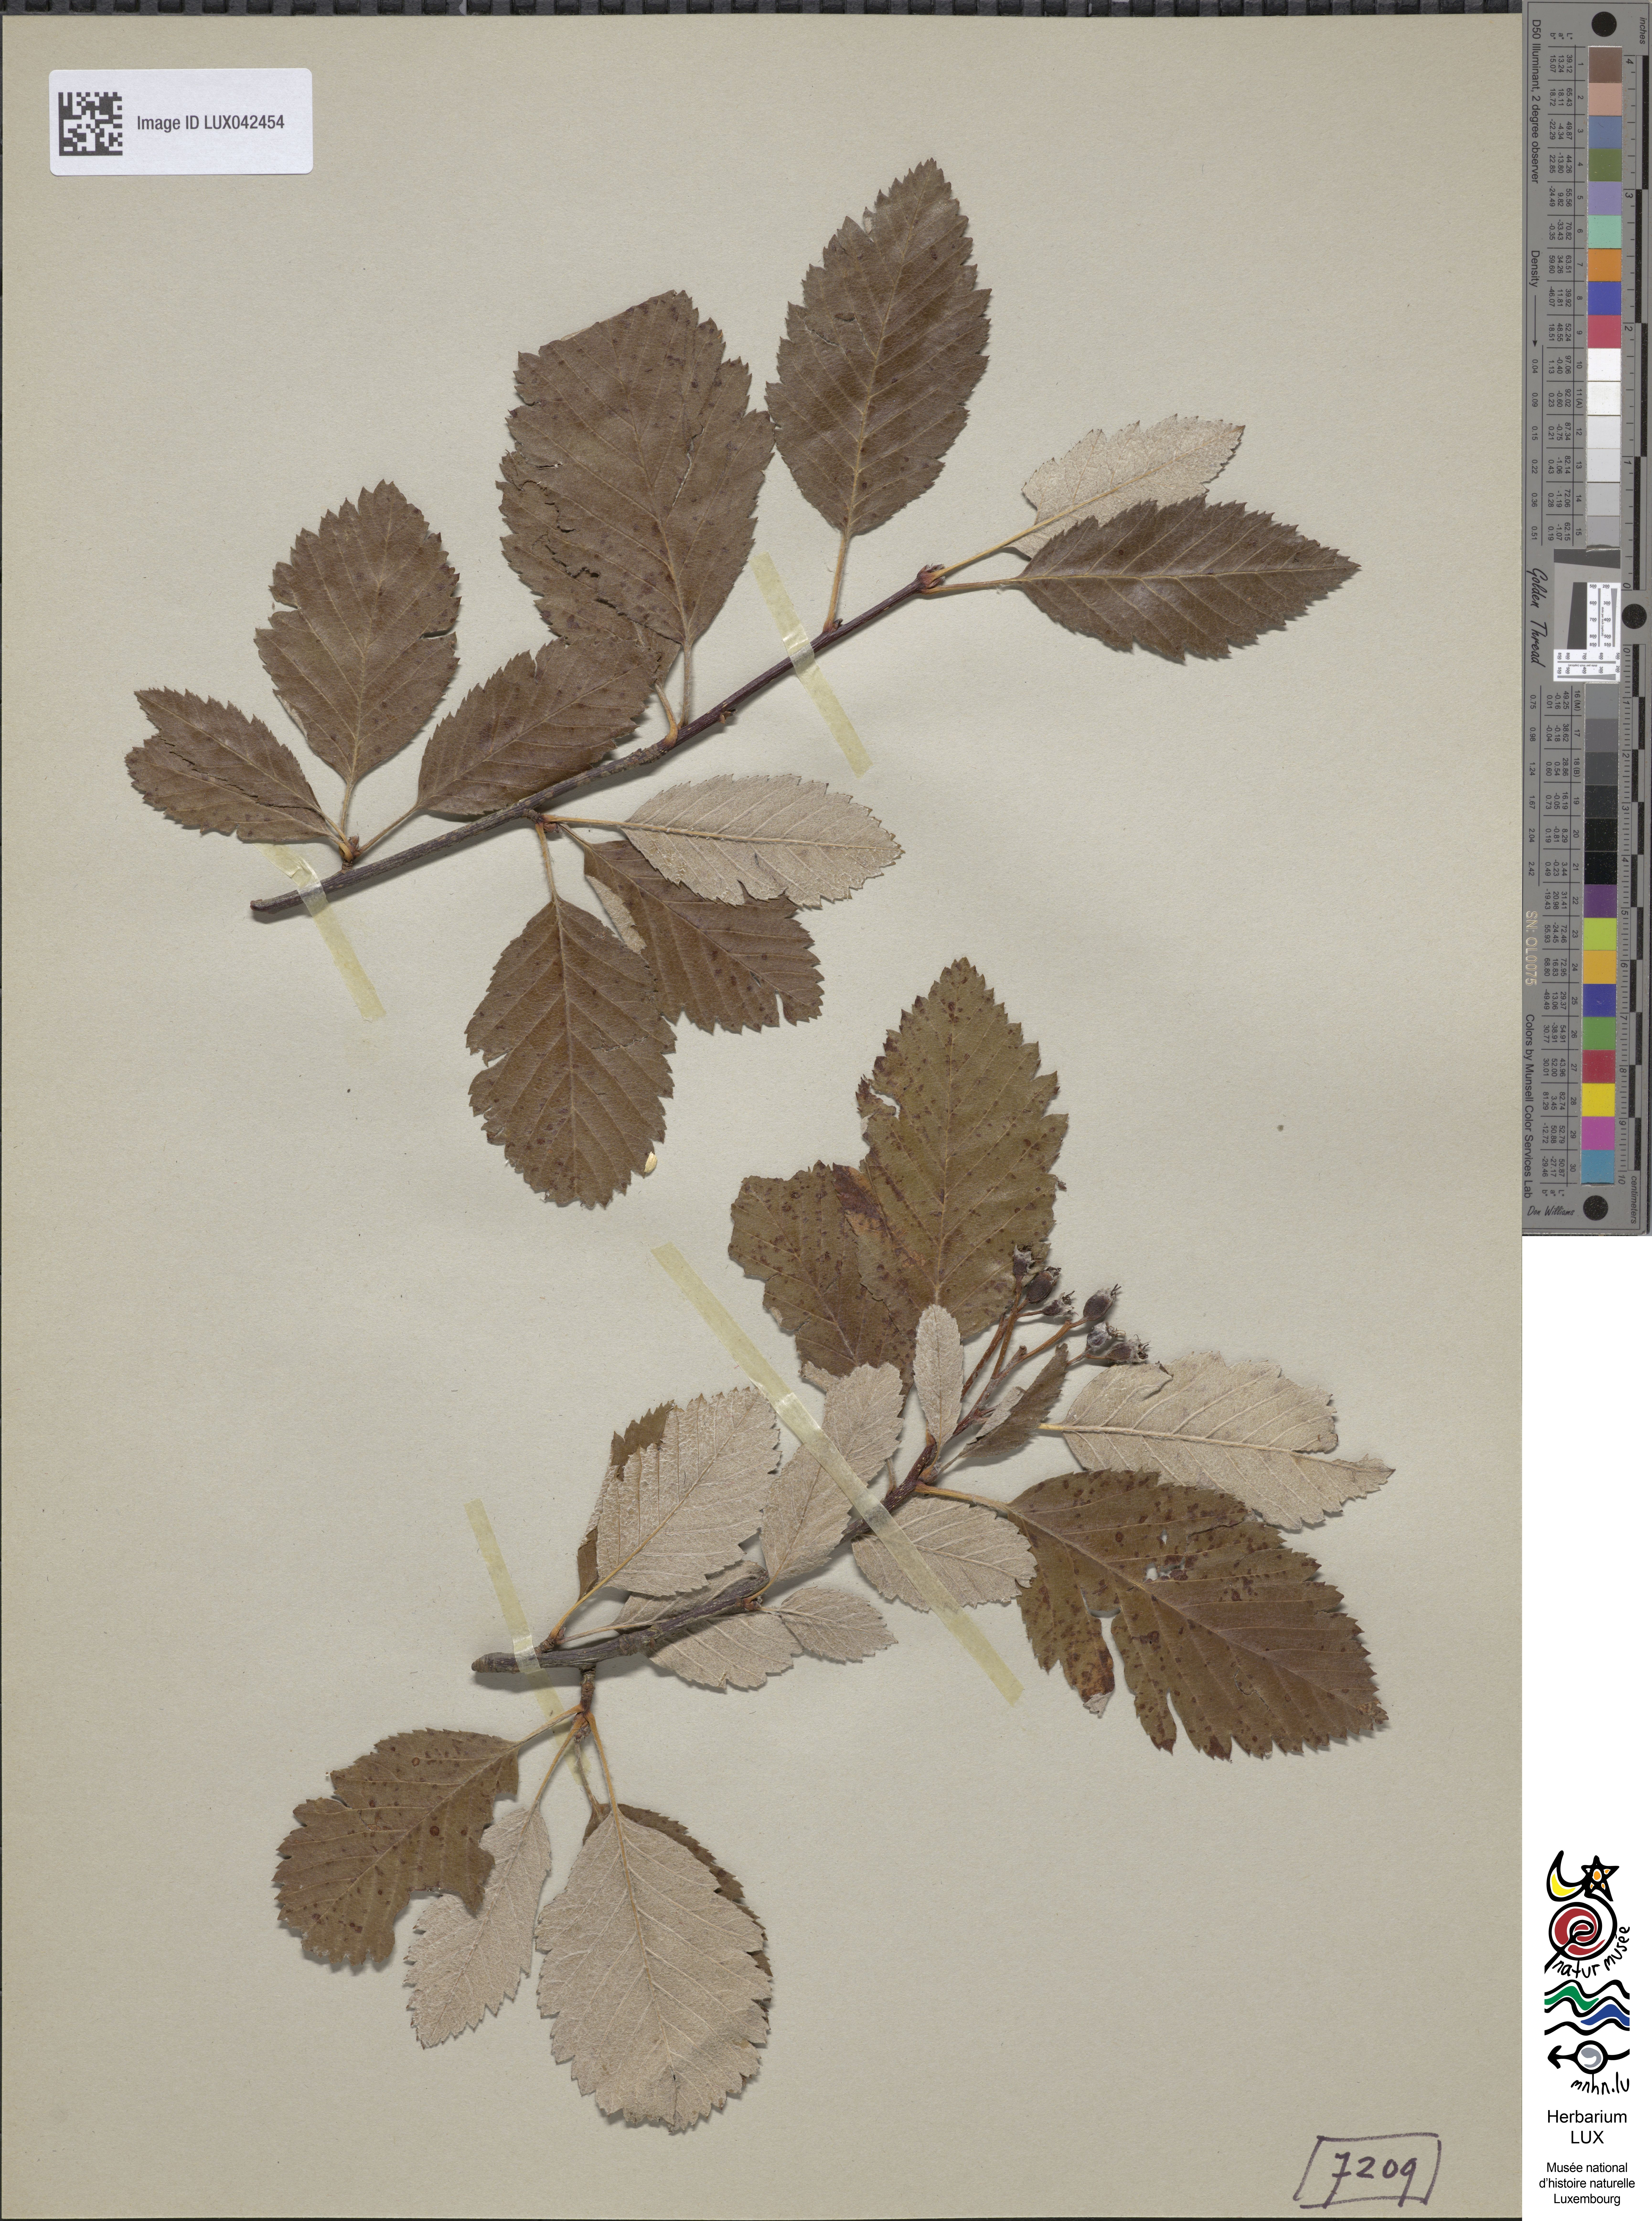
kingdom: Plantae
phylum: Tracheophyta
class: Magnoliopsida
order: Rosales
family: Rosaceae
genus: Scandosorbus
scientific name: Scandosorbus intermedia
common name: Swedish whitebeam
